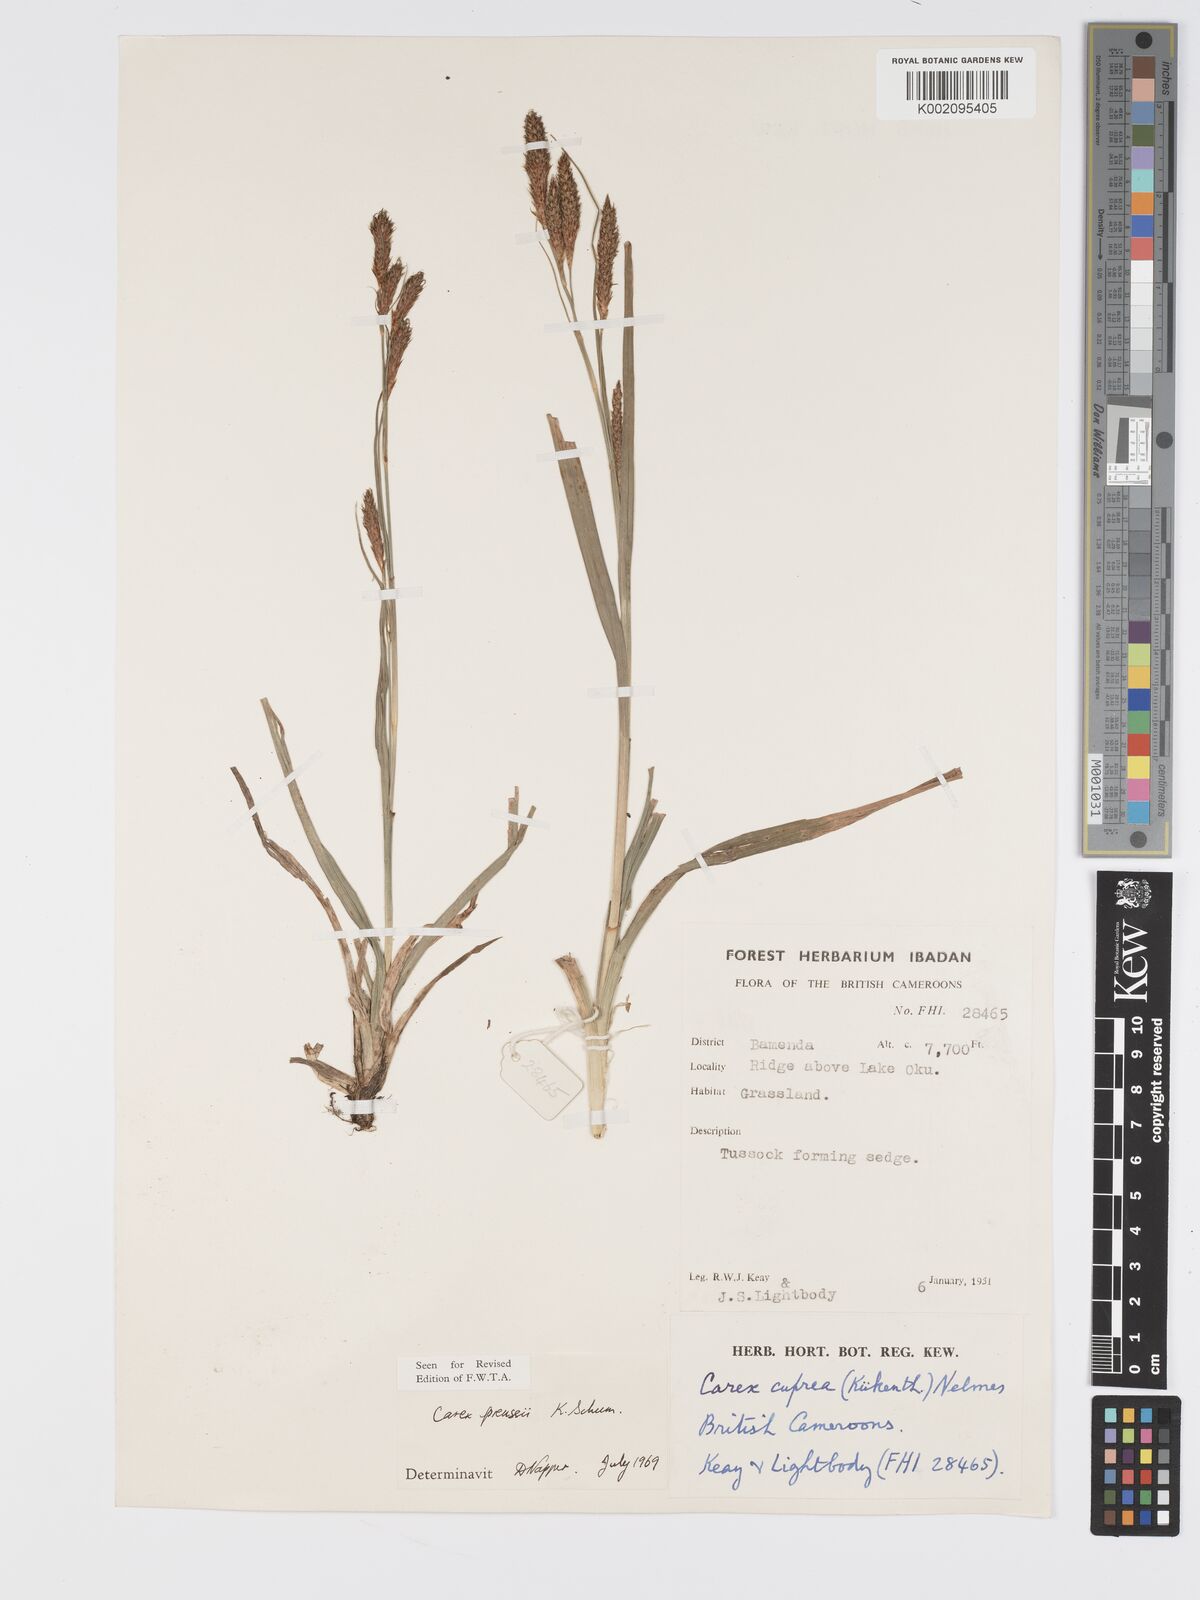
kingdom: Plantae
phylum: Tracheophyta
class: Liliopsida
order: Poales
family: Cyperaceae
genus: Carex
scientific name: Carex petitiana
